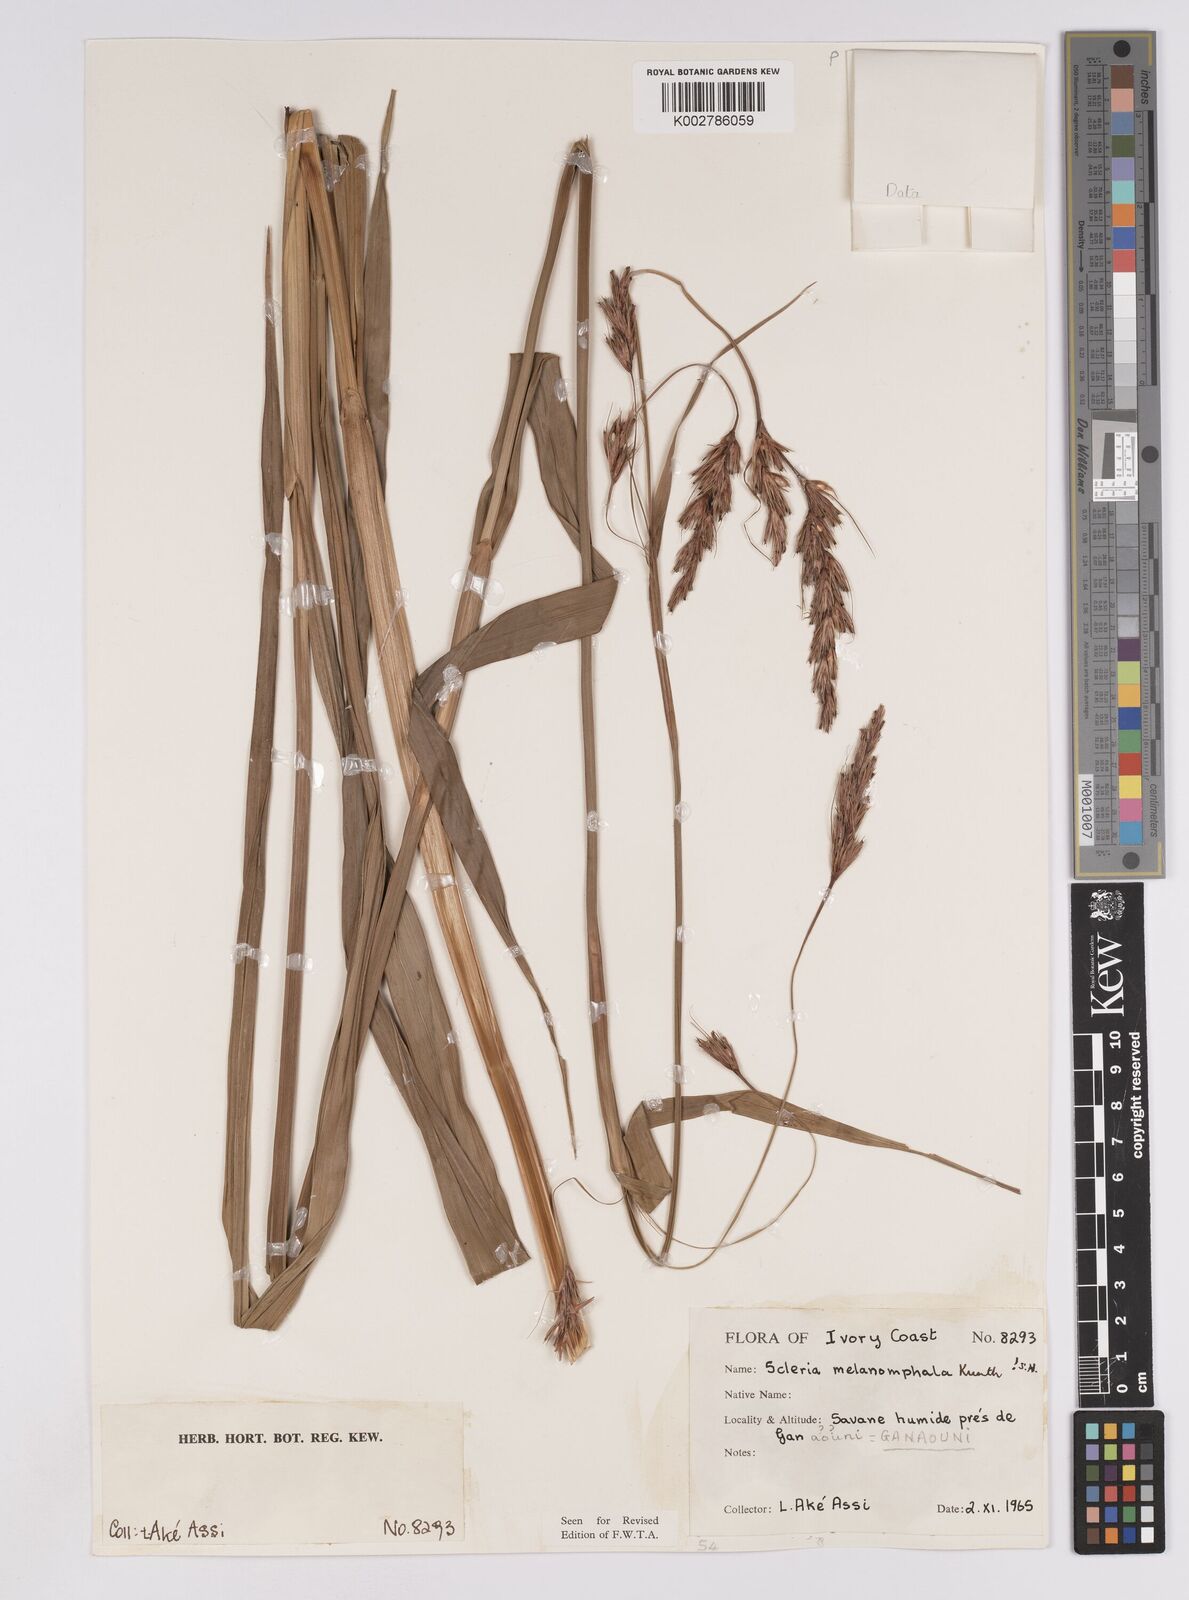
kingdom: Plantae
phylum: Tracheophyta
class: Liliopsida
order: Poales
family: Cyperaceae
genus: Scleria
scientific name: Scleria melanomphala
